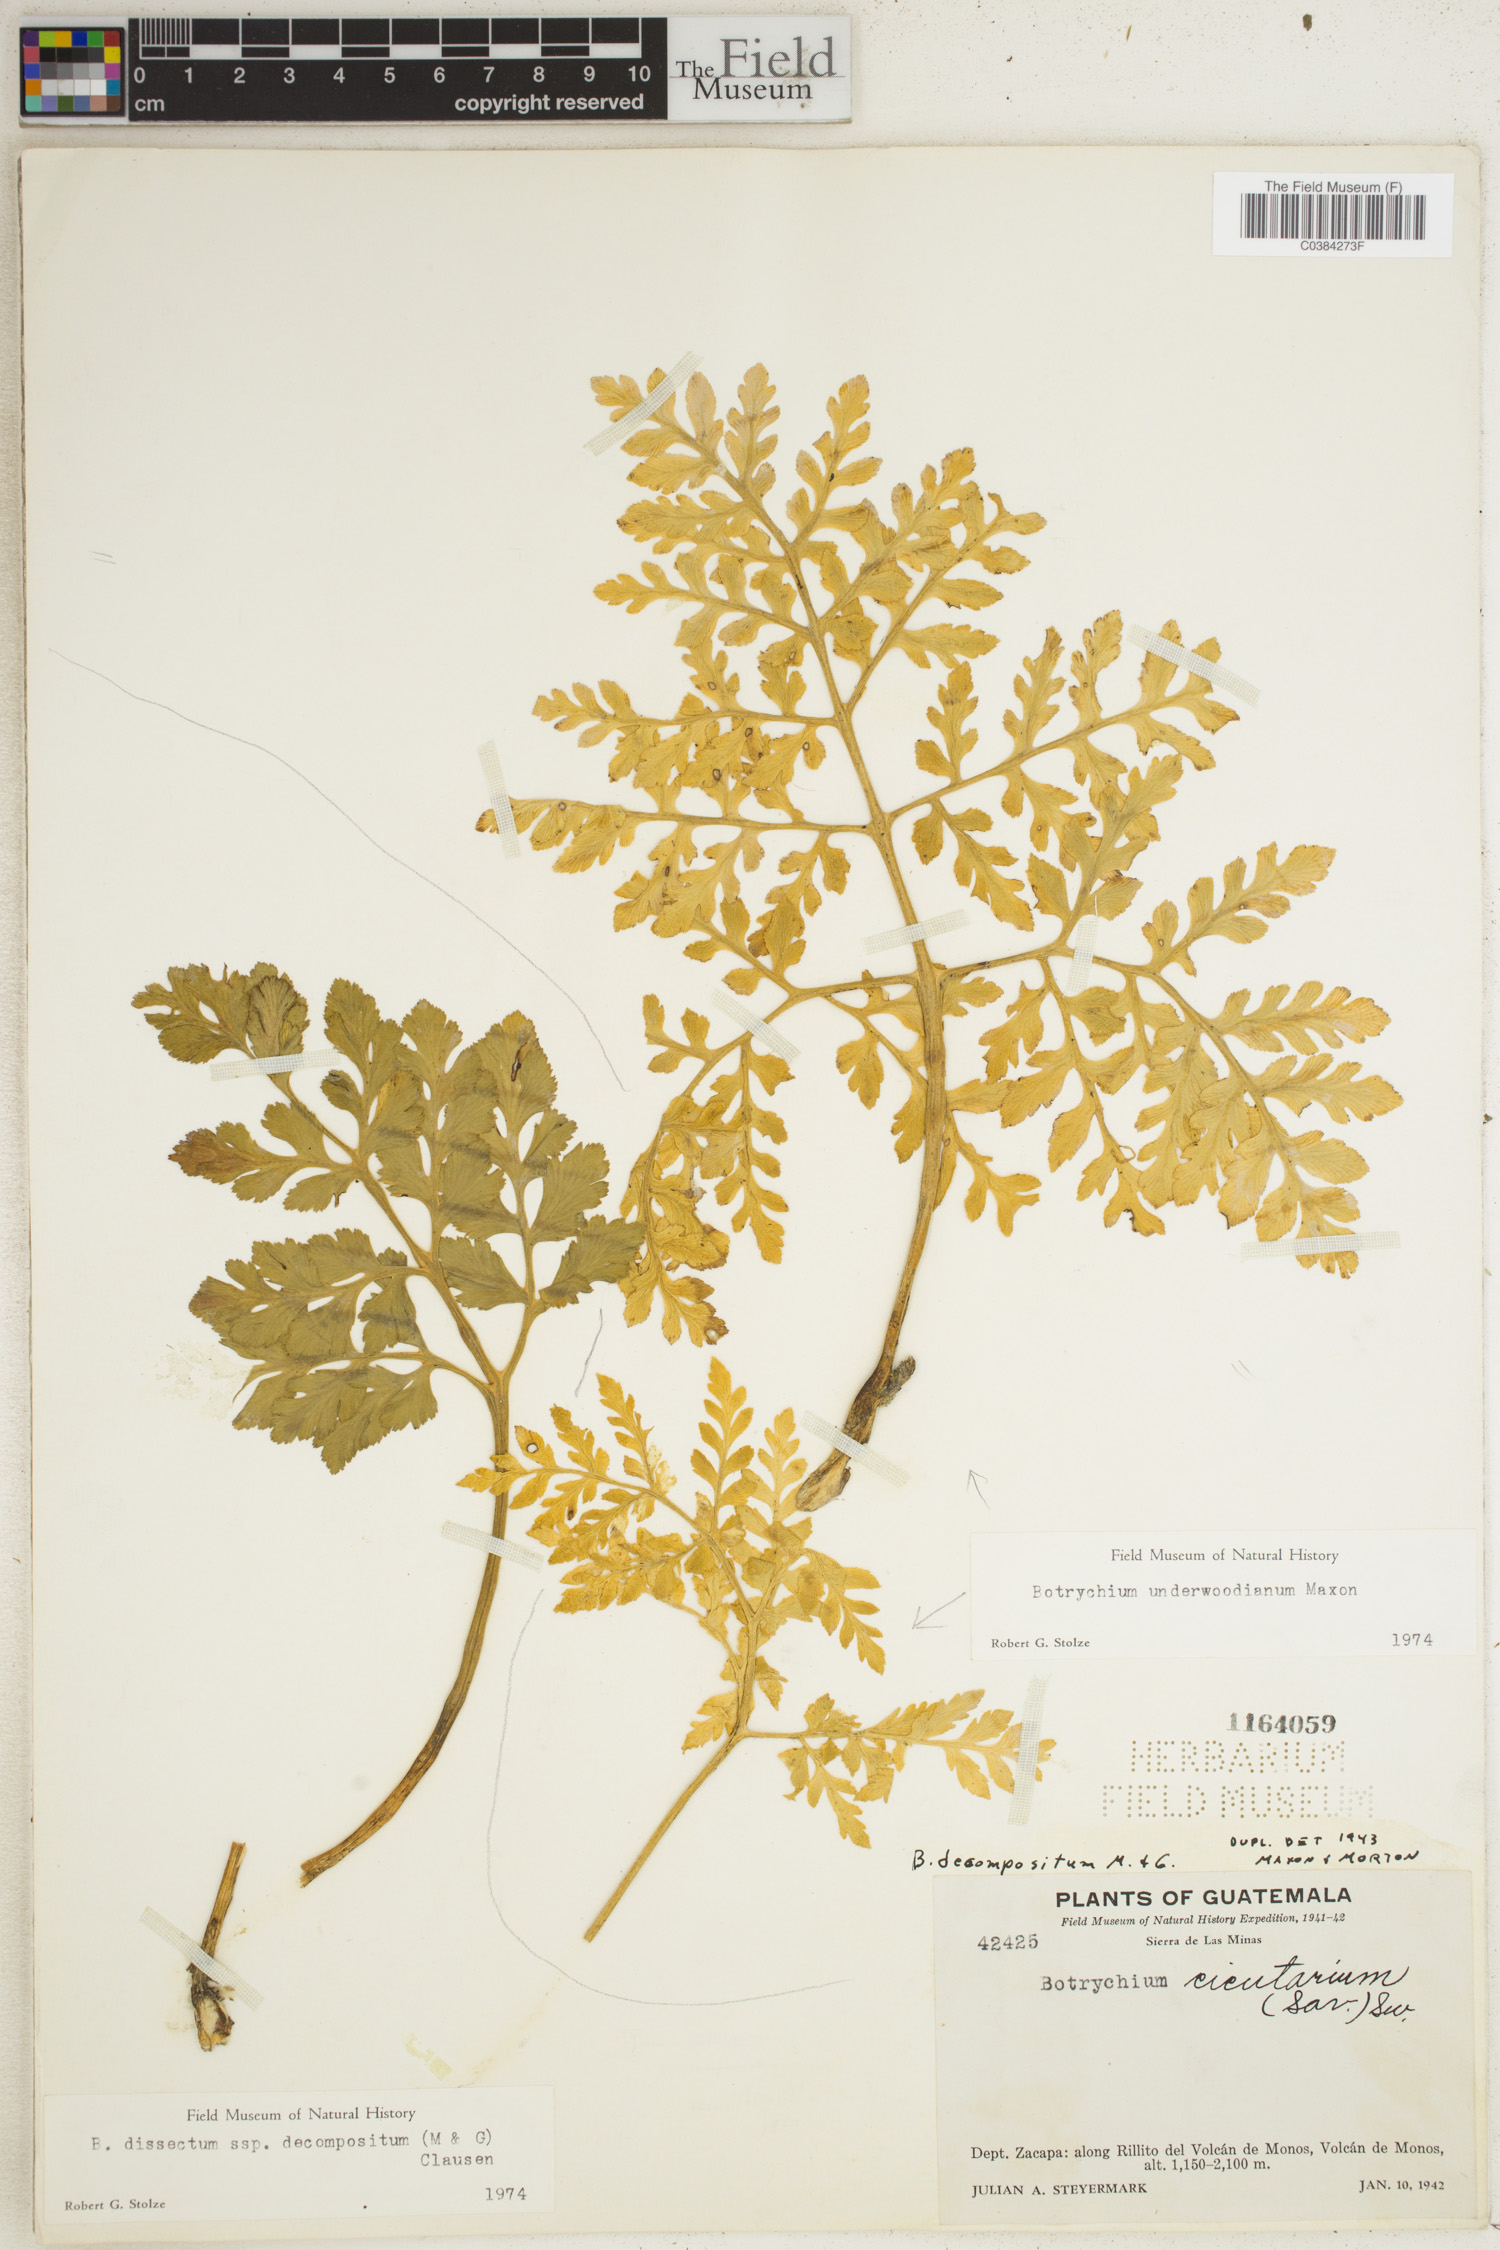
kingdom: Plantae
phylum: Tracheophyta
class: Polypodiopsida
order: Ophioglossales
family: Ophioglossaceae
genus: Sceptridium
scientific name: Sceptridium underwoodianum
